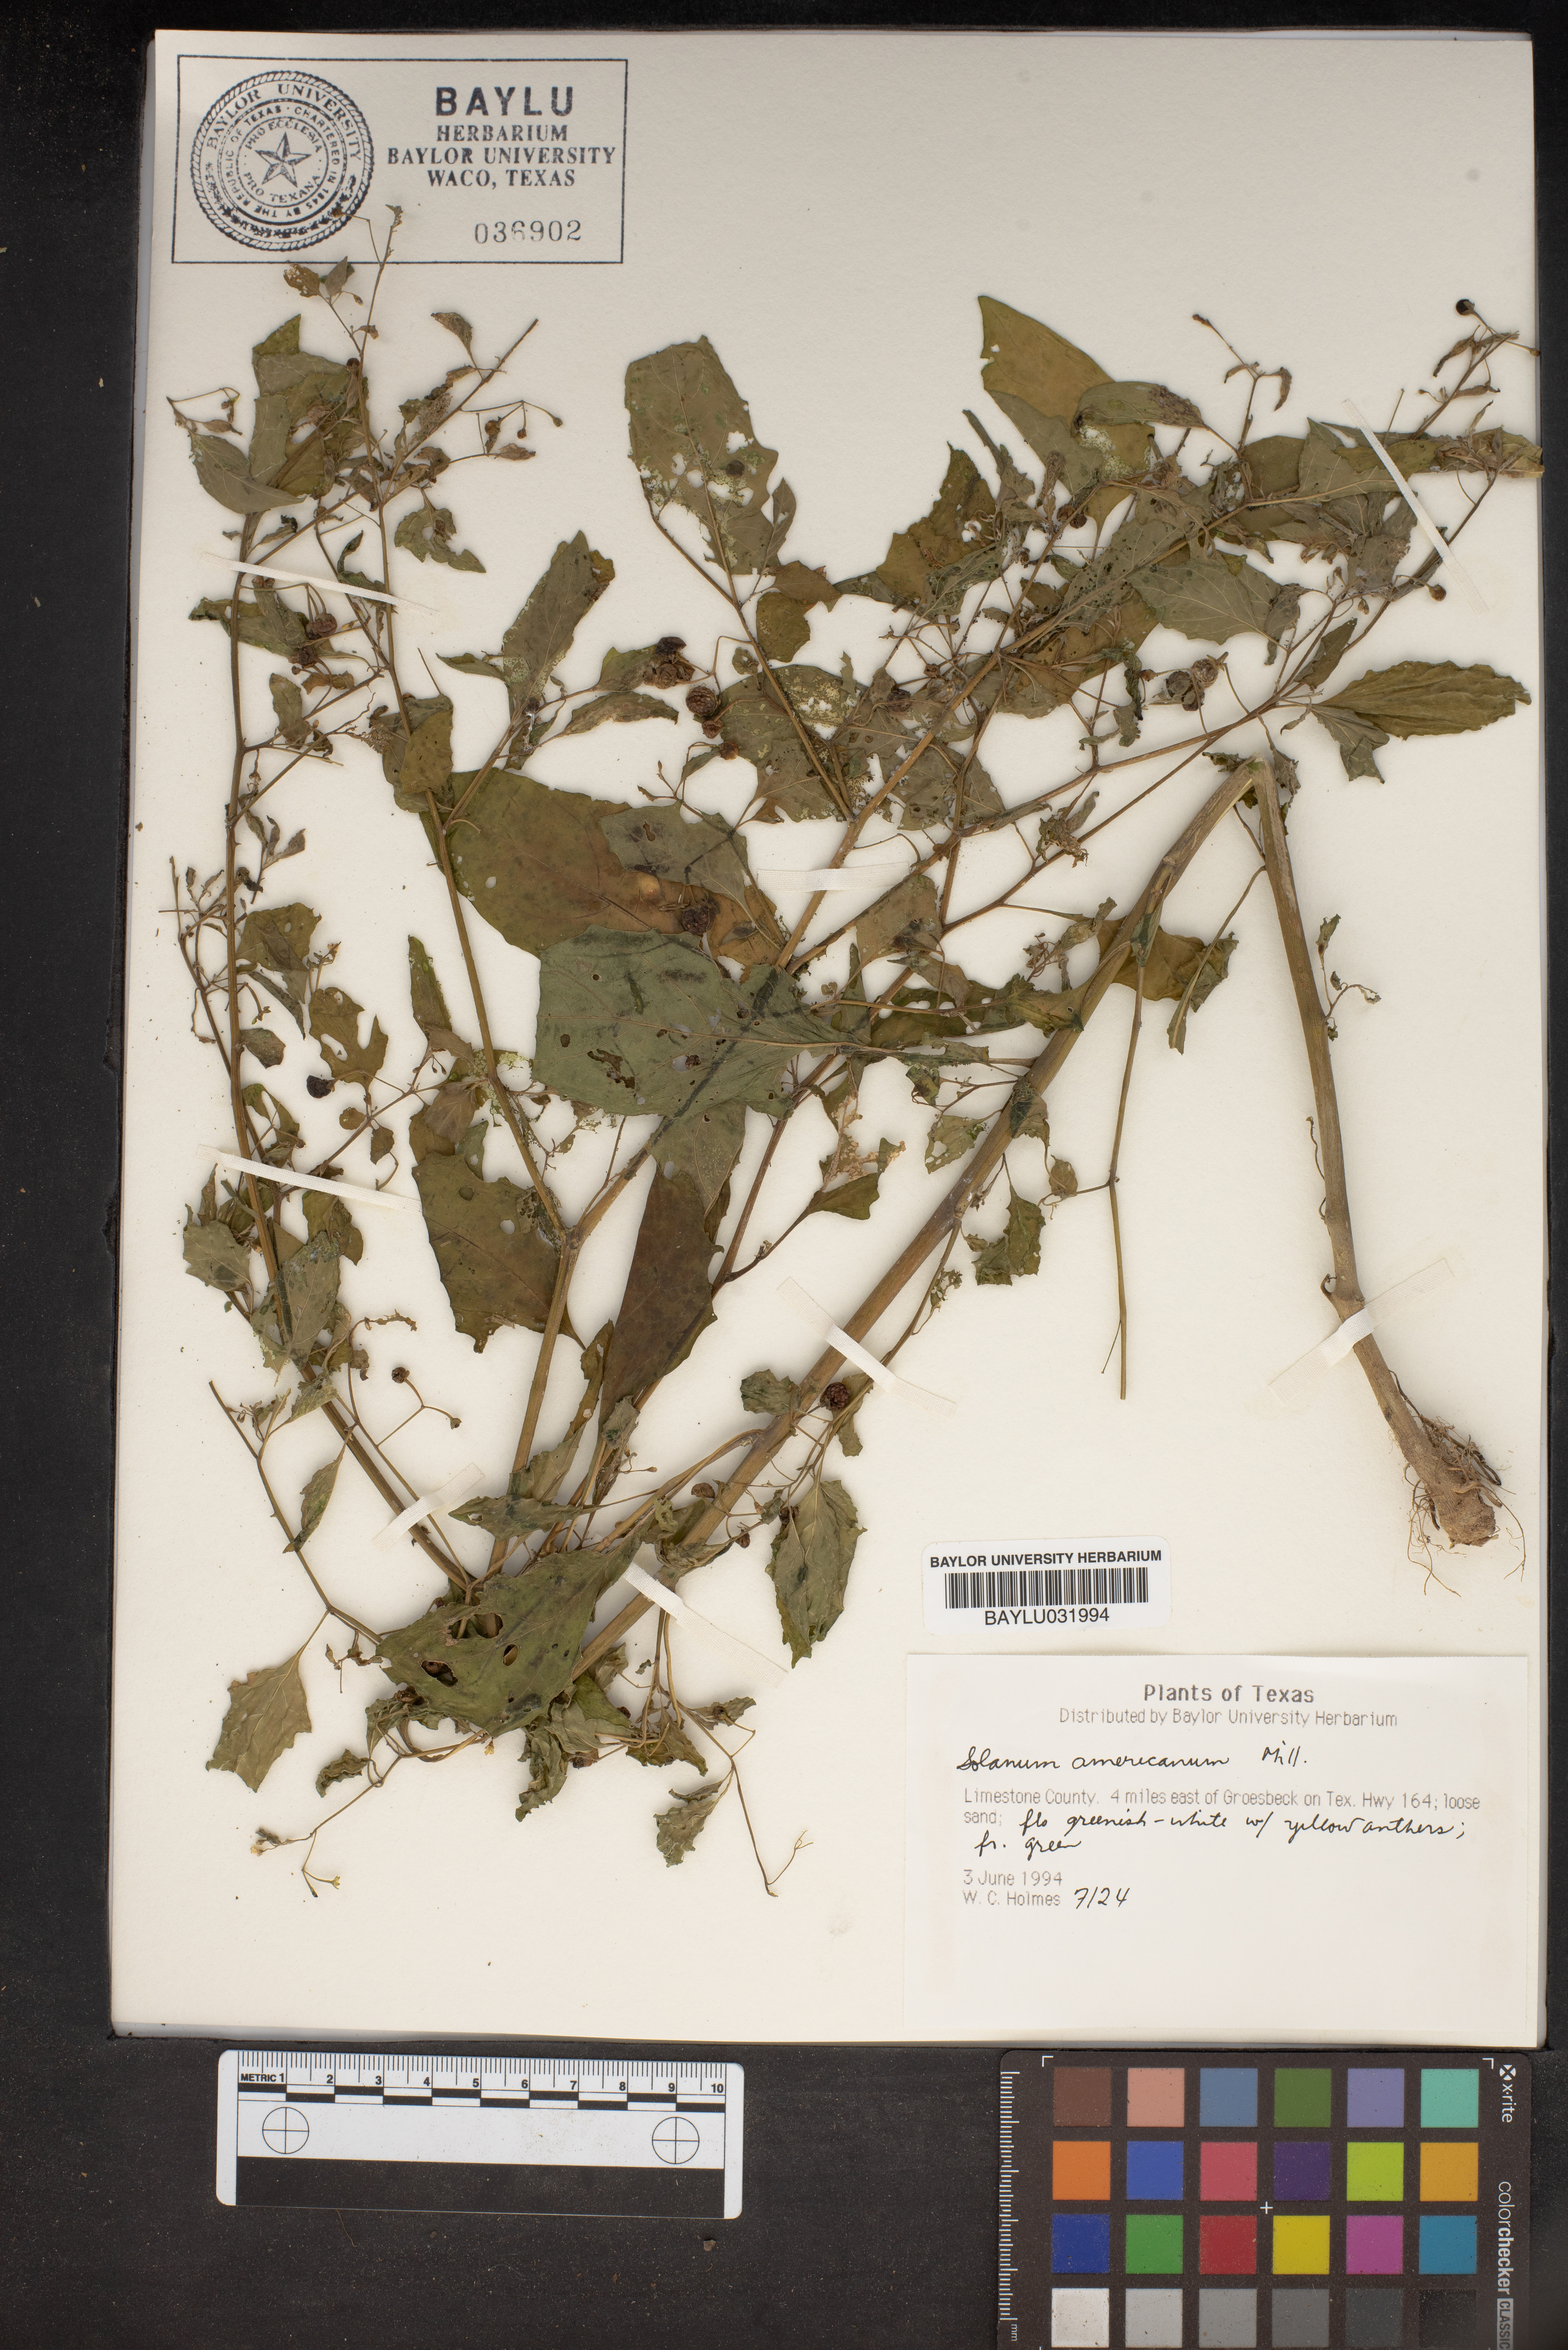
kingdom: Plantae
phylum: Tracheophyta
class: Magnoliopsida
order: Solanales
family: Solanaceae
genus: Solanum
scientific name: Solanum americanum
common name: American black nightshade
